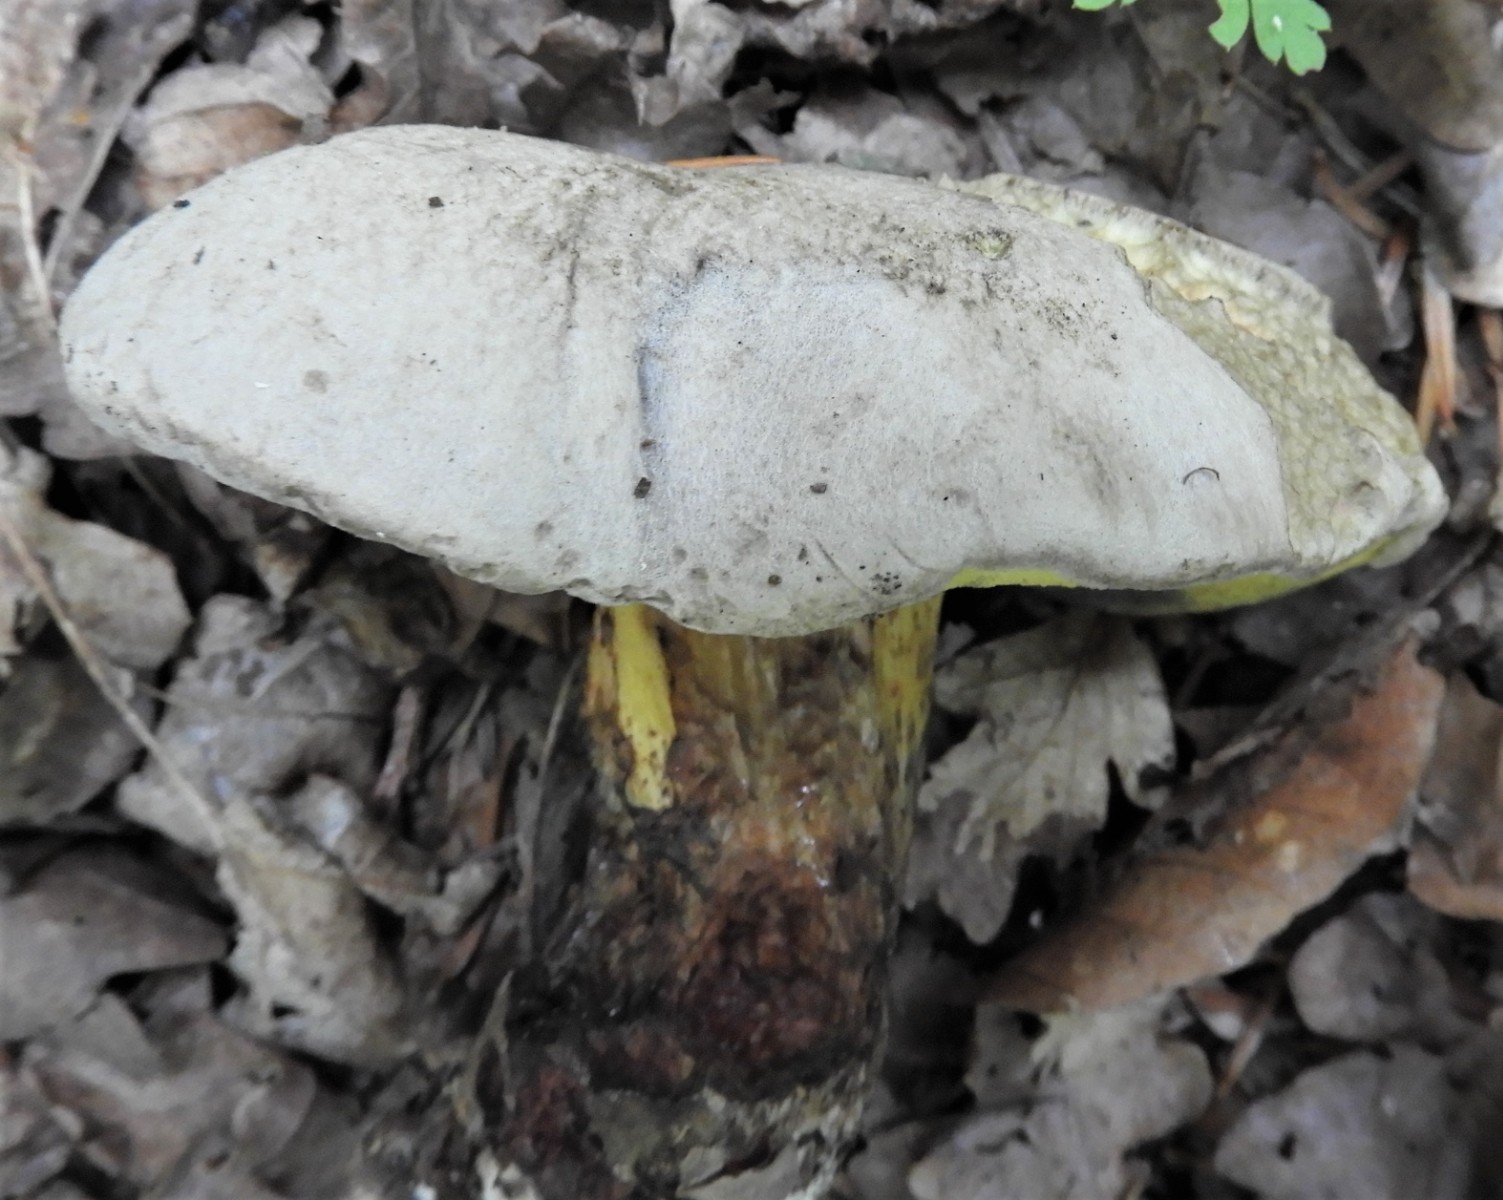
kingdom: Fungi
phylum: Basidiomycota
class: Agaricomycetes
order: Boletales
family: Boletaceae
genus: Caloboletus
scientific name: Caloboletus radicans
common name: rod-rørhat
